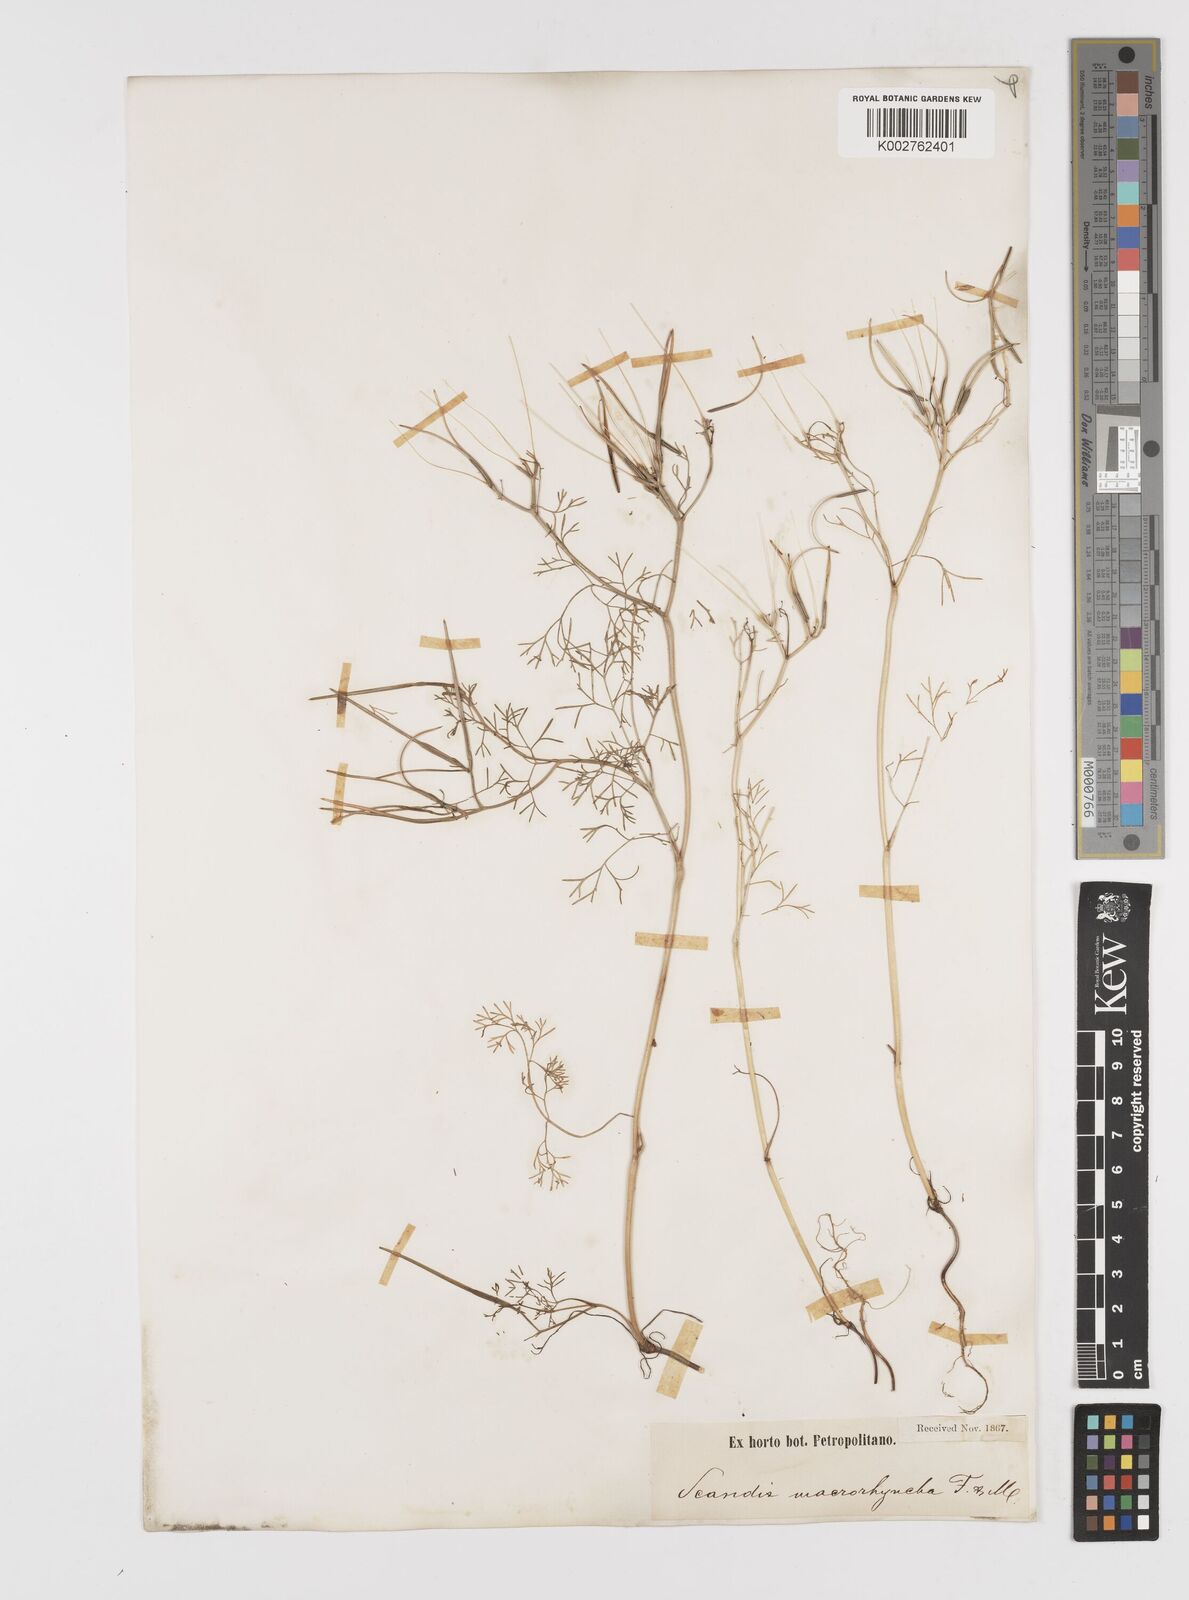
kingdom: Plantae
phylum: Tracheophyta
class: Magnoliopsida
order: Apiales
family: Apiaceae
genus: Scandix
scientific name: Scandix pecten-veneris
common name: Shepherd's-needle
